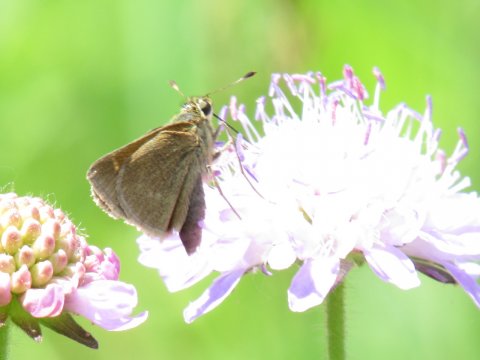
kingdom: Animalia
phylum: Arthropoda
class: Insecta
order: Lepidoptera
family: Hesperiidae
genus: Polites
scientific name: Polites themistocles
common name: Tawny-edged Skipper
